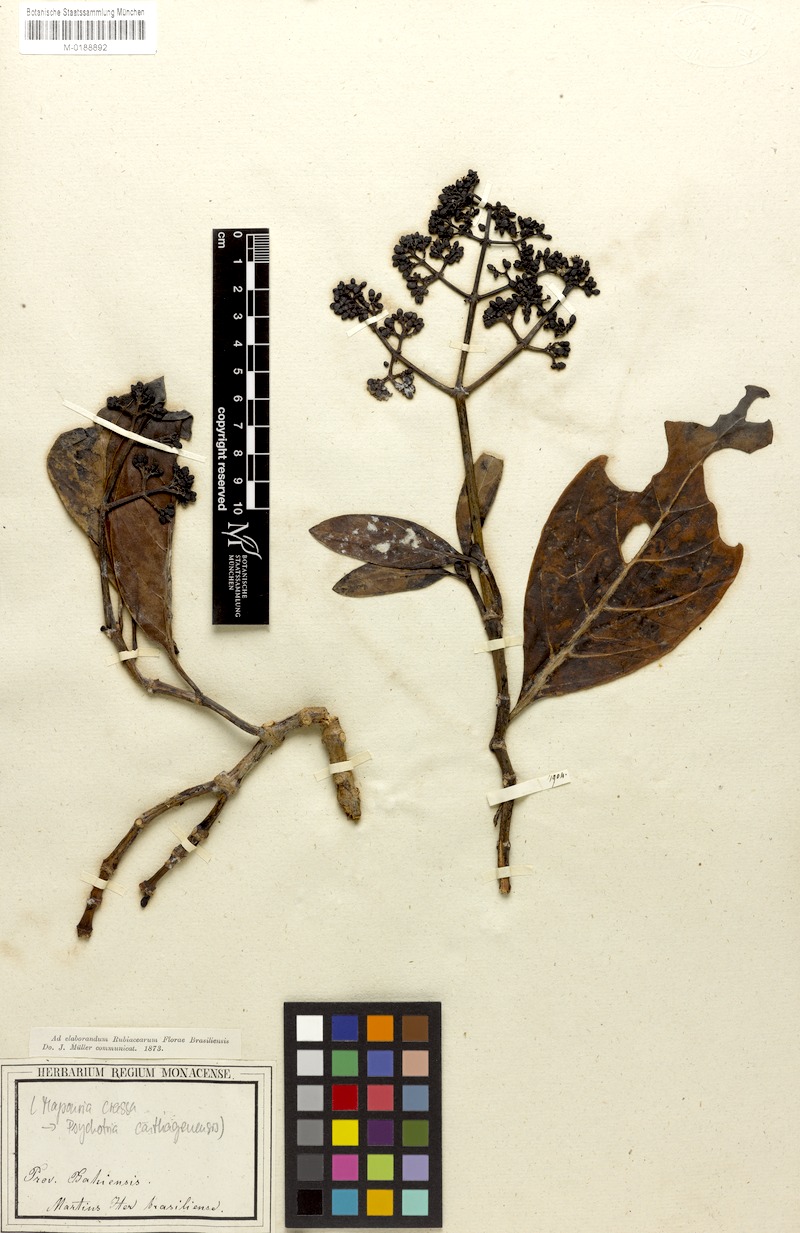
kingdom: Plantae
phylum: Tracheophyta
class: Magnoliopsida
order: Gentianales
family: Rubiaceae
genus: Psychotria
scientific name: Psychotria carthagenensis
